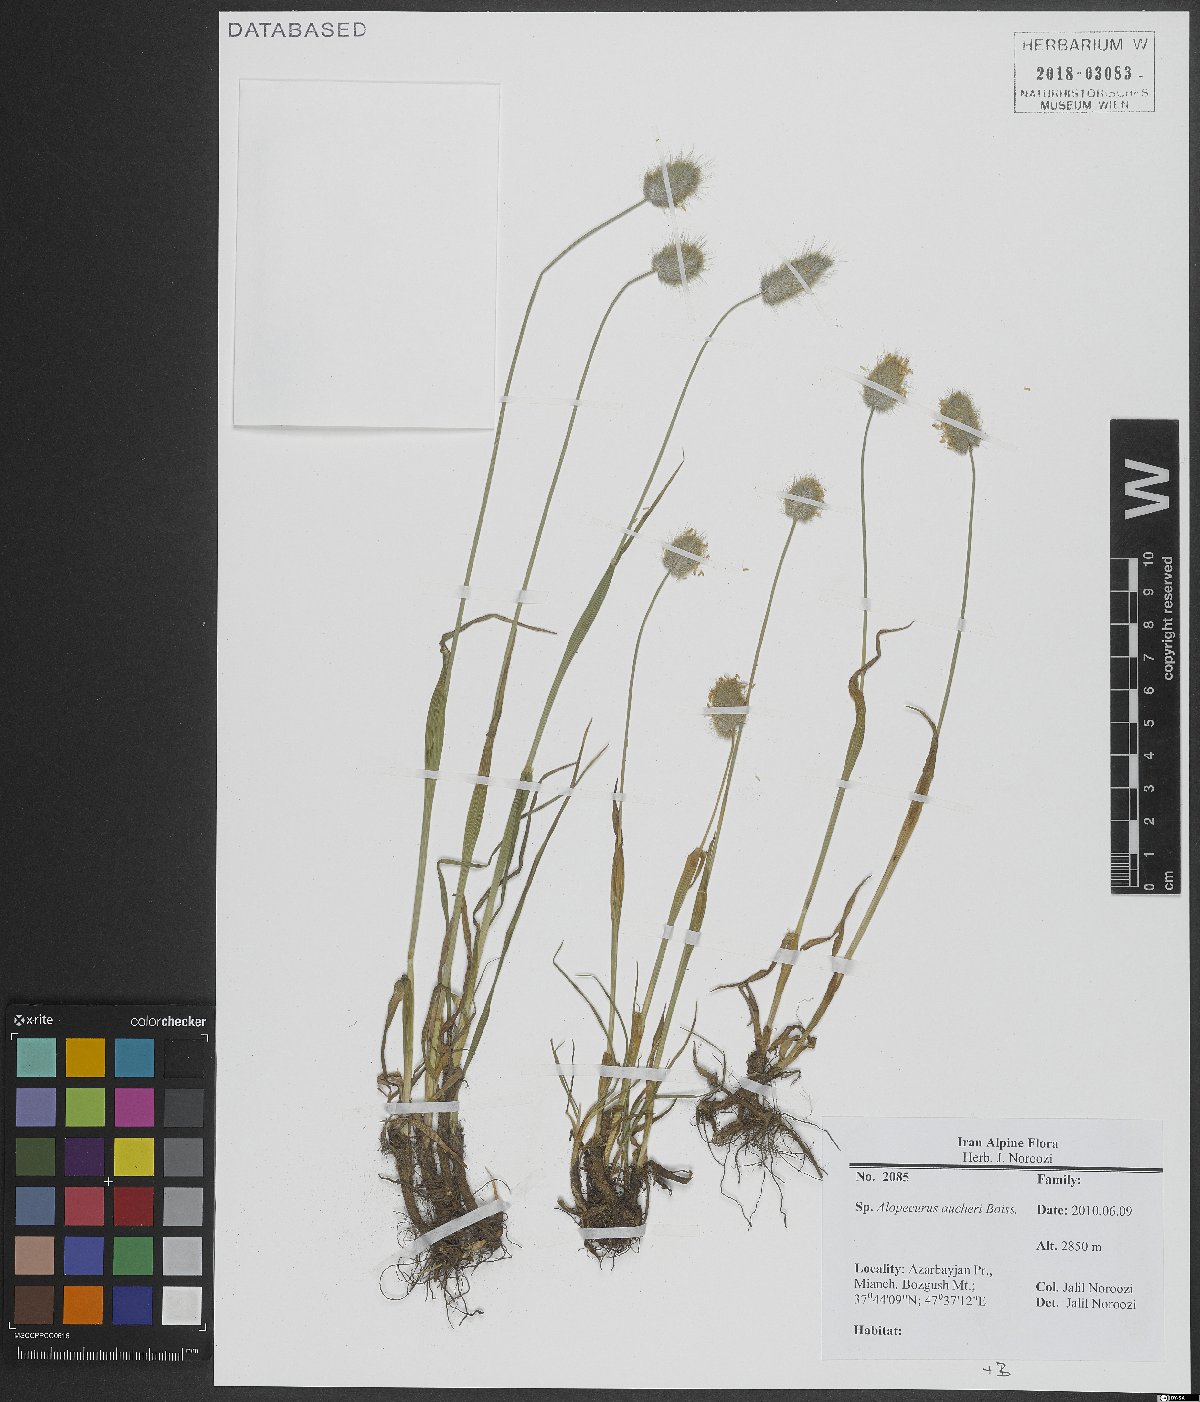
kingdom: Plantae
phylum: Tracheophyta
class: Liliopsida
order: Poales
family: Poaceae
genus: Alopecurus
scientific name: Alopecurus aucheri
